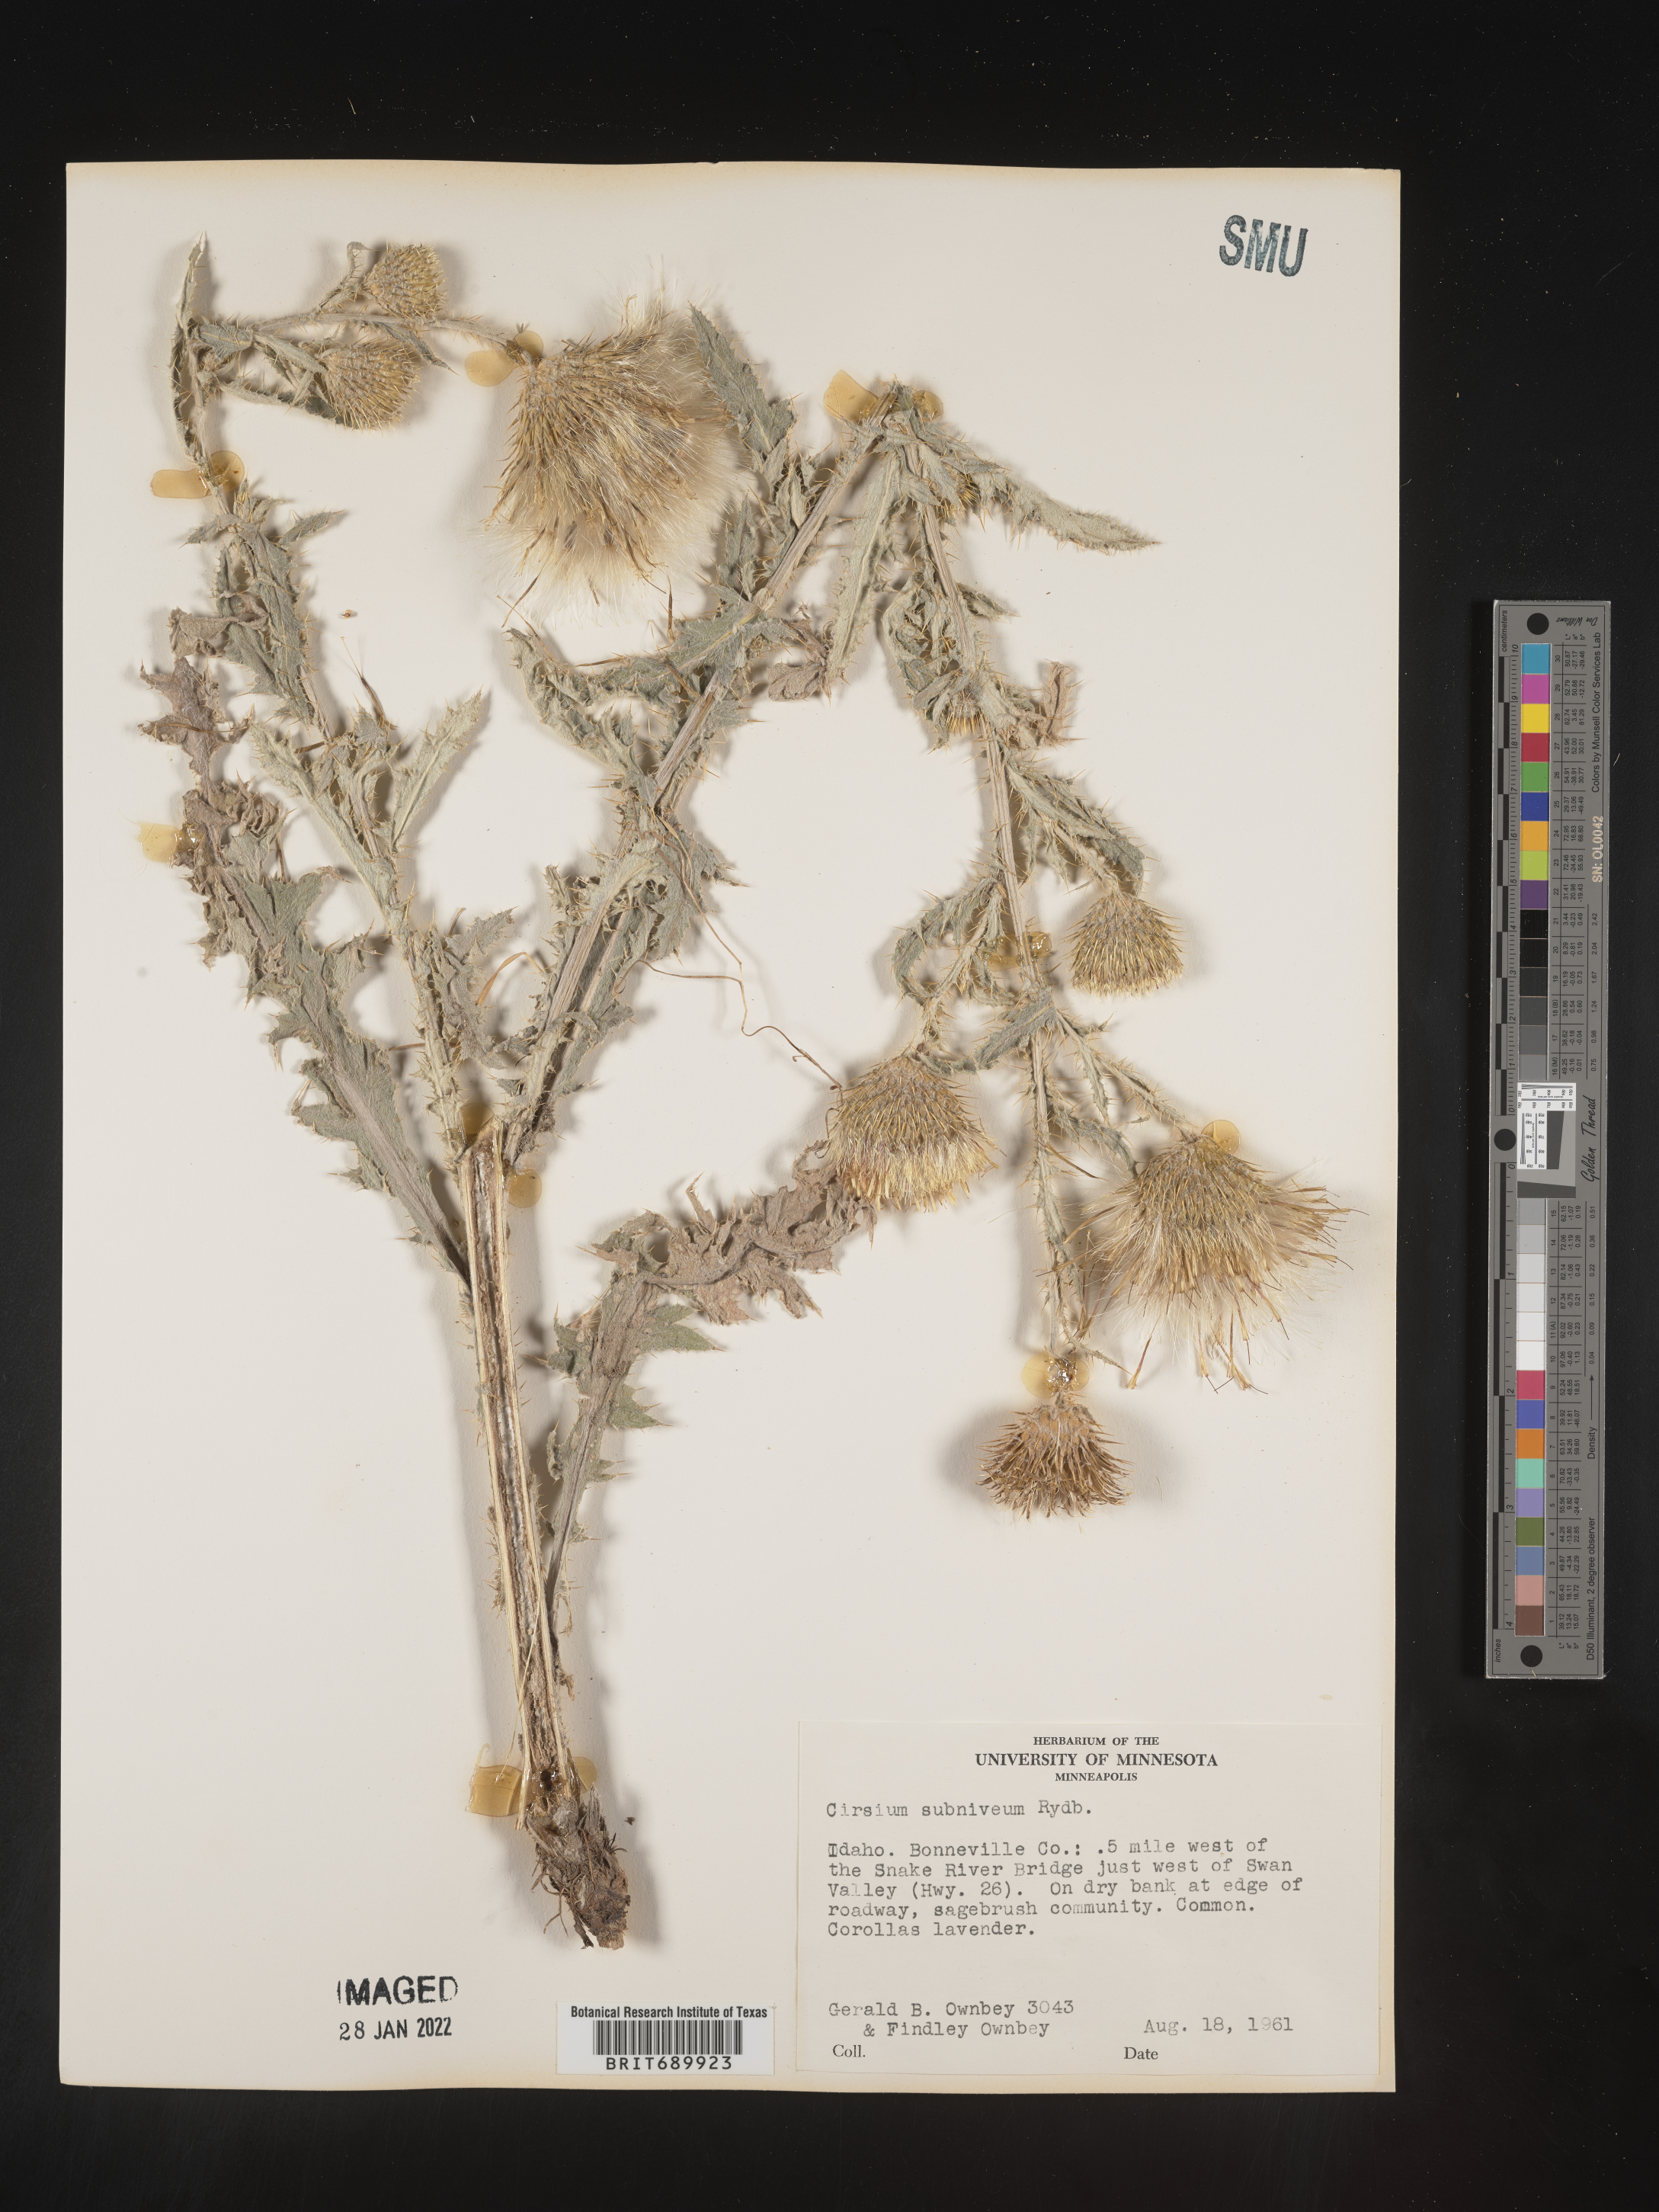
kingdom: Plantae
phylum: Tracheophyta
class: Magnoliopsida
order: Asterales
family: Asteraceae
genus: Cirsium
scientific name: Cirsium inamoenum
